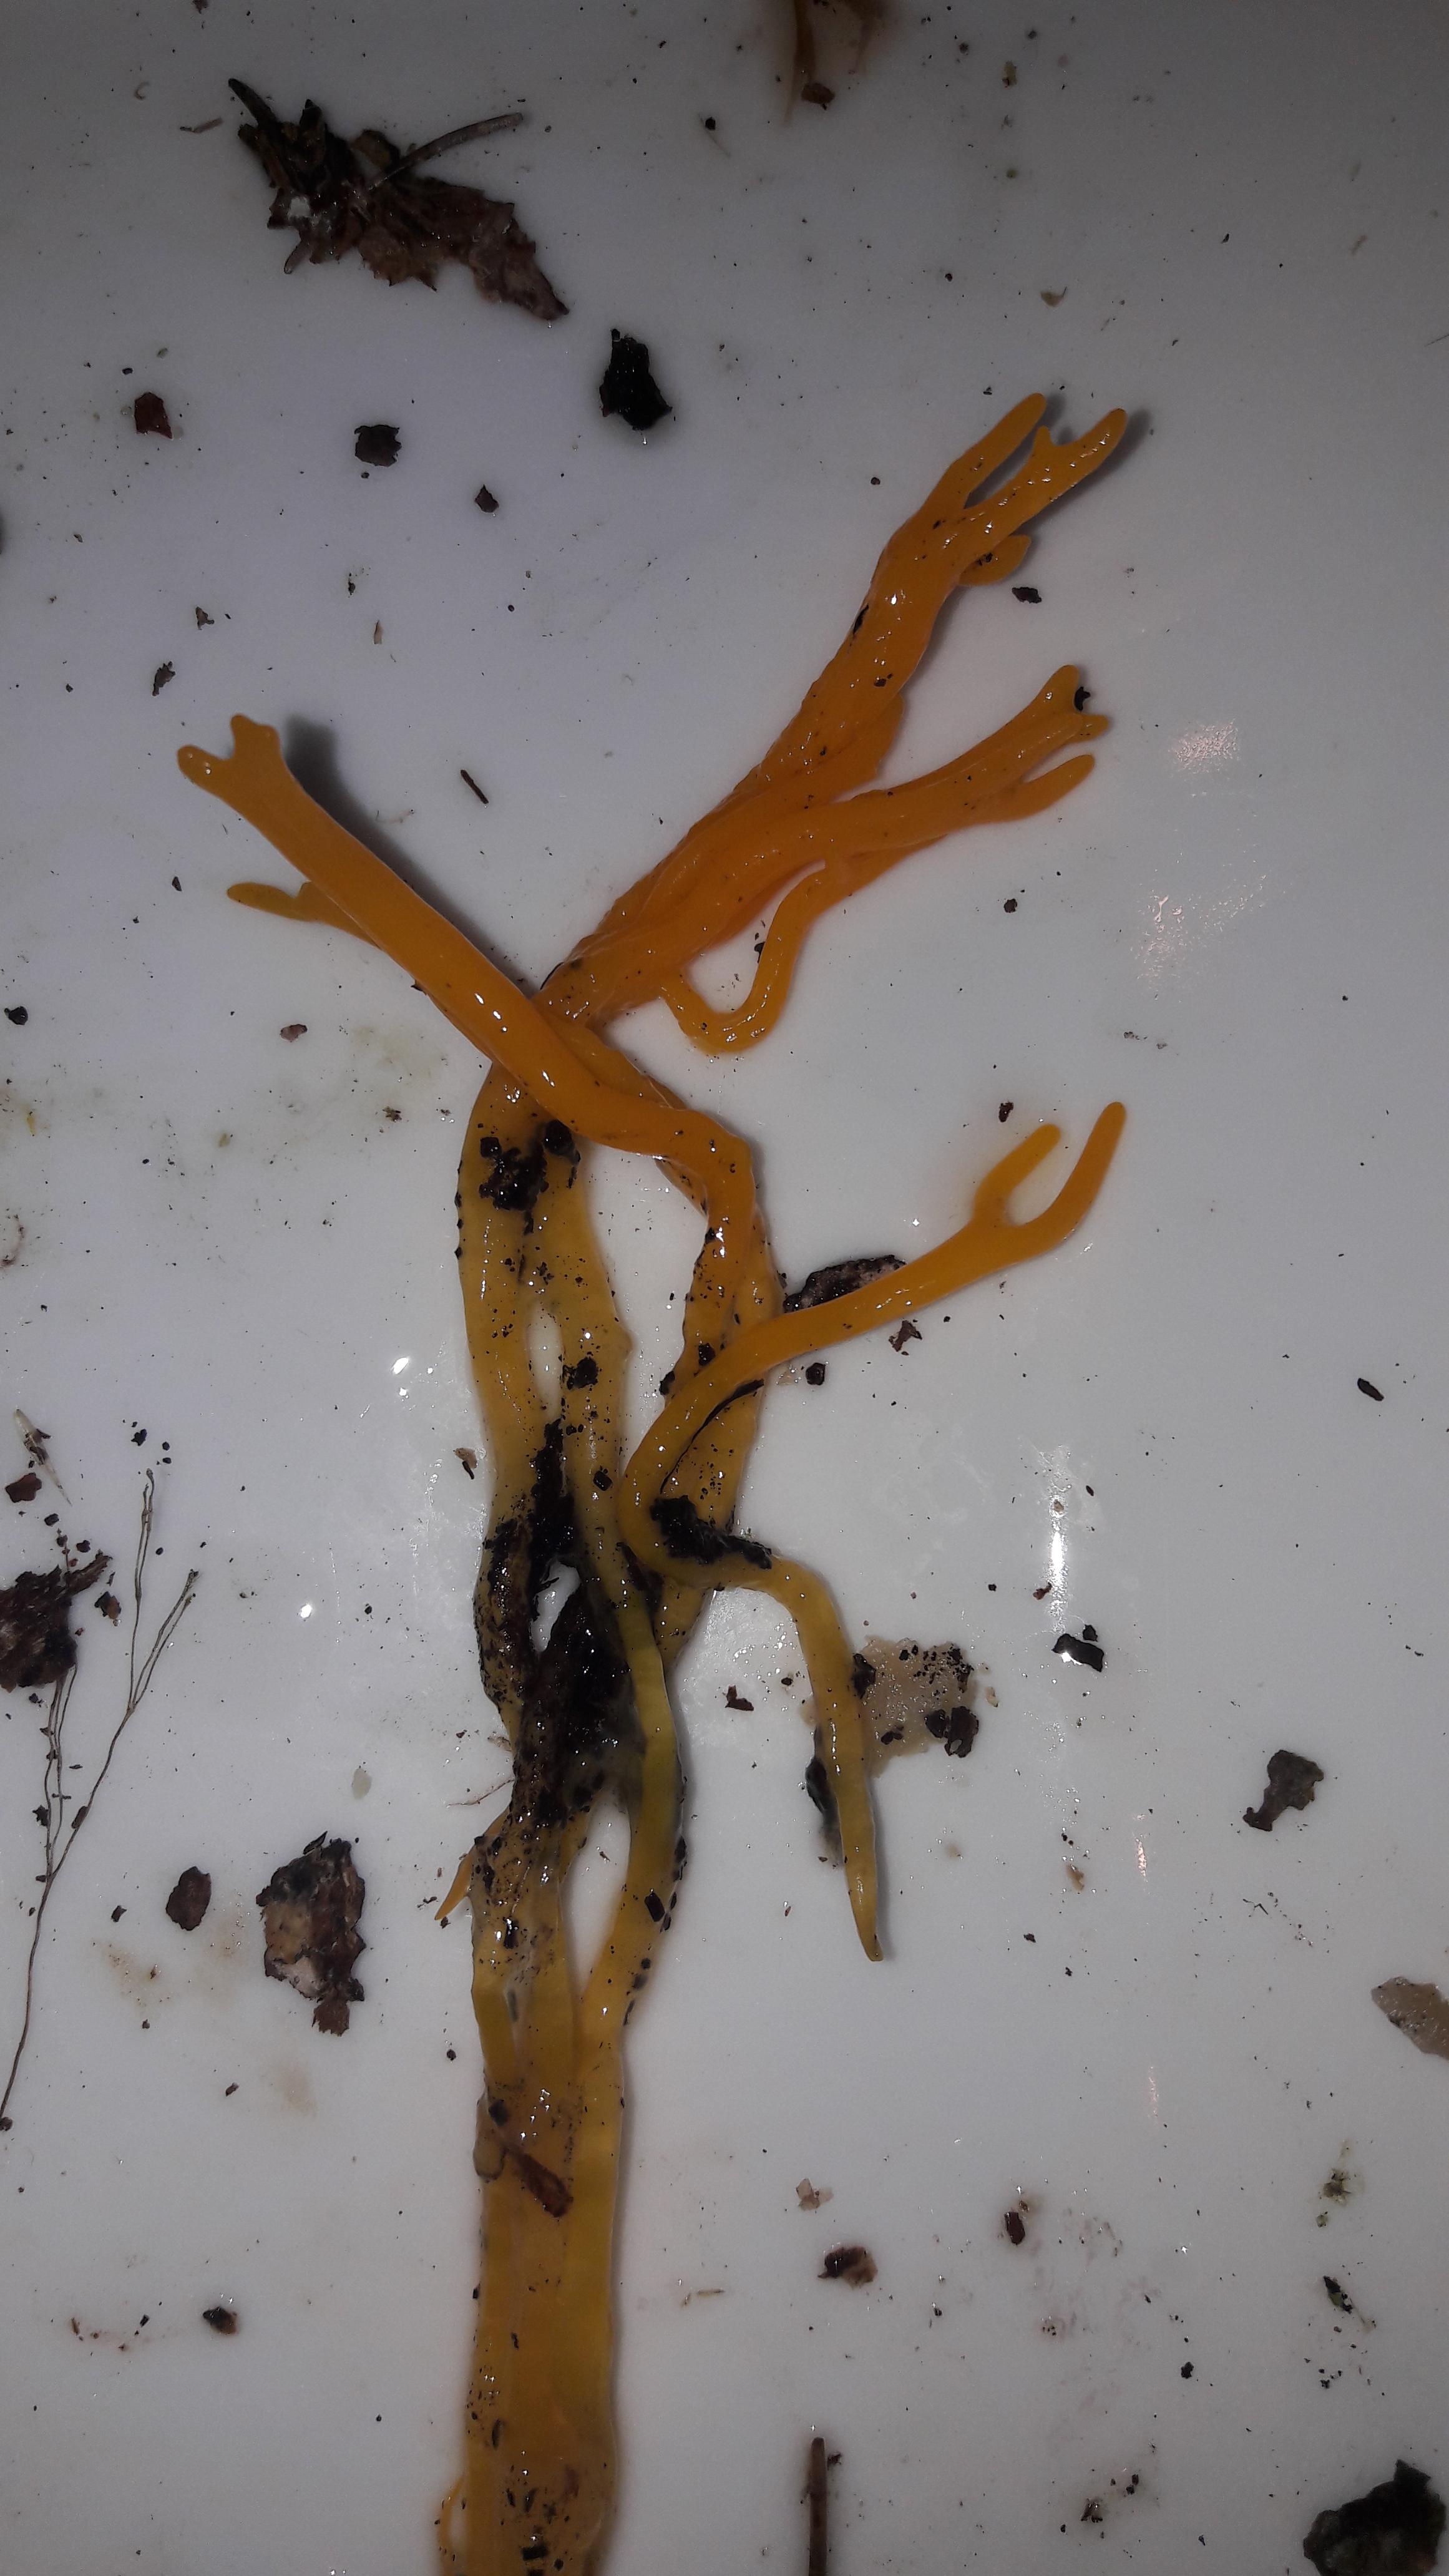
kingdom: Fungi
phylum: Basidiomycota
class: Dacrymycetes
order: Dacrymycetales
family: Dacrymycetaceae
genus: Calocera
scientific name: Calocera viscosa
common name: almindelig guldgaffel
